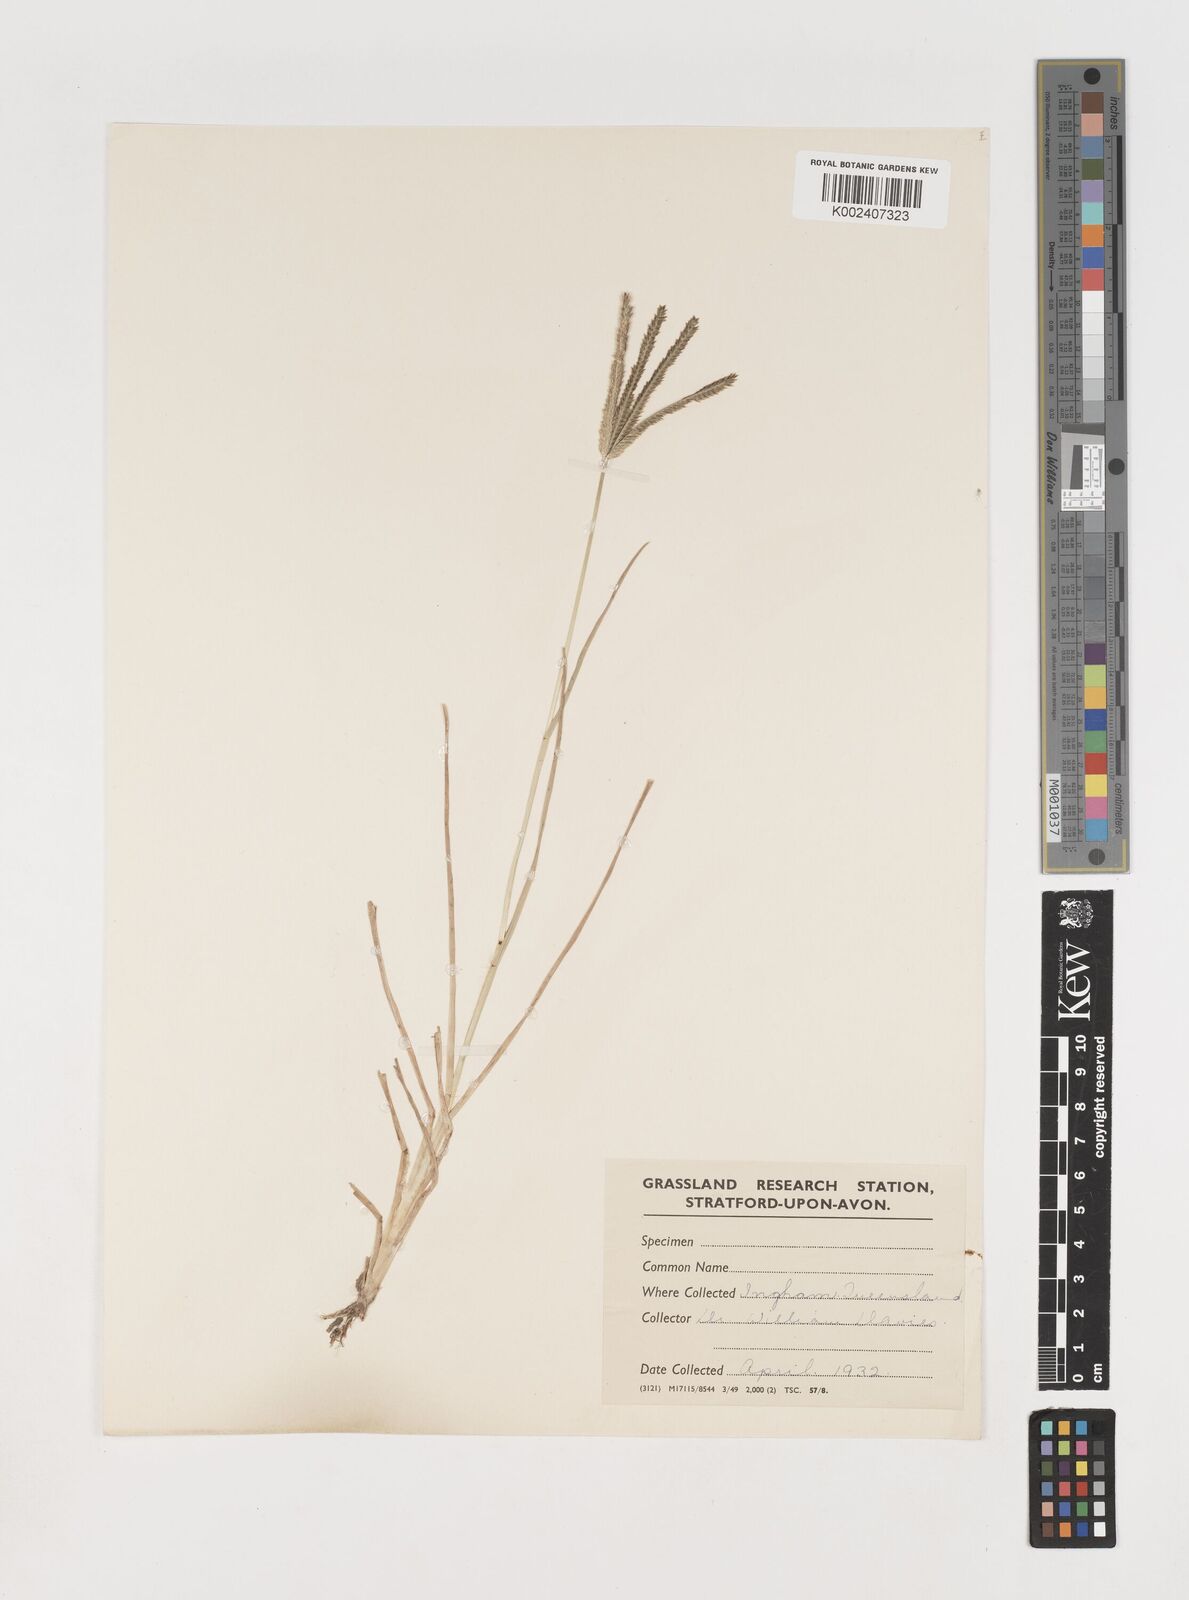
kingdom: Plantae
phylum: Tracheophyta
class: Liliopsida
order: Poales
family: Poaceae
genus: Eleusine
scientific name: Eleusine indica
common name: Yard-grass
